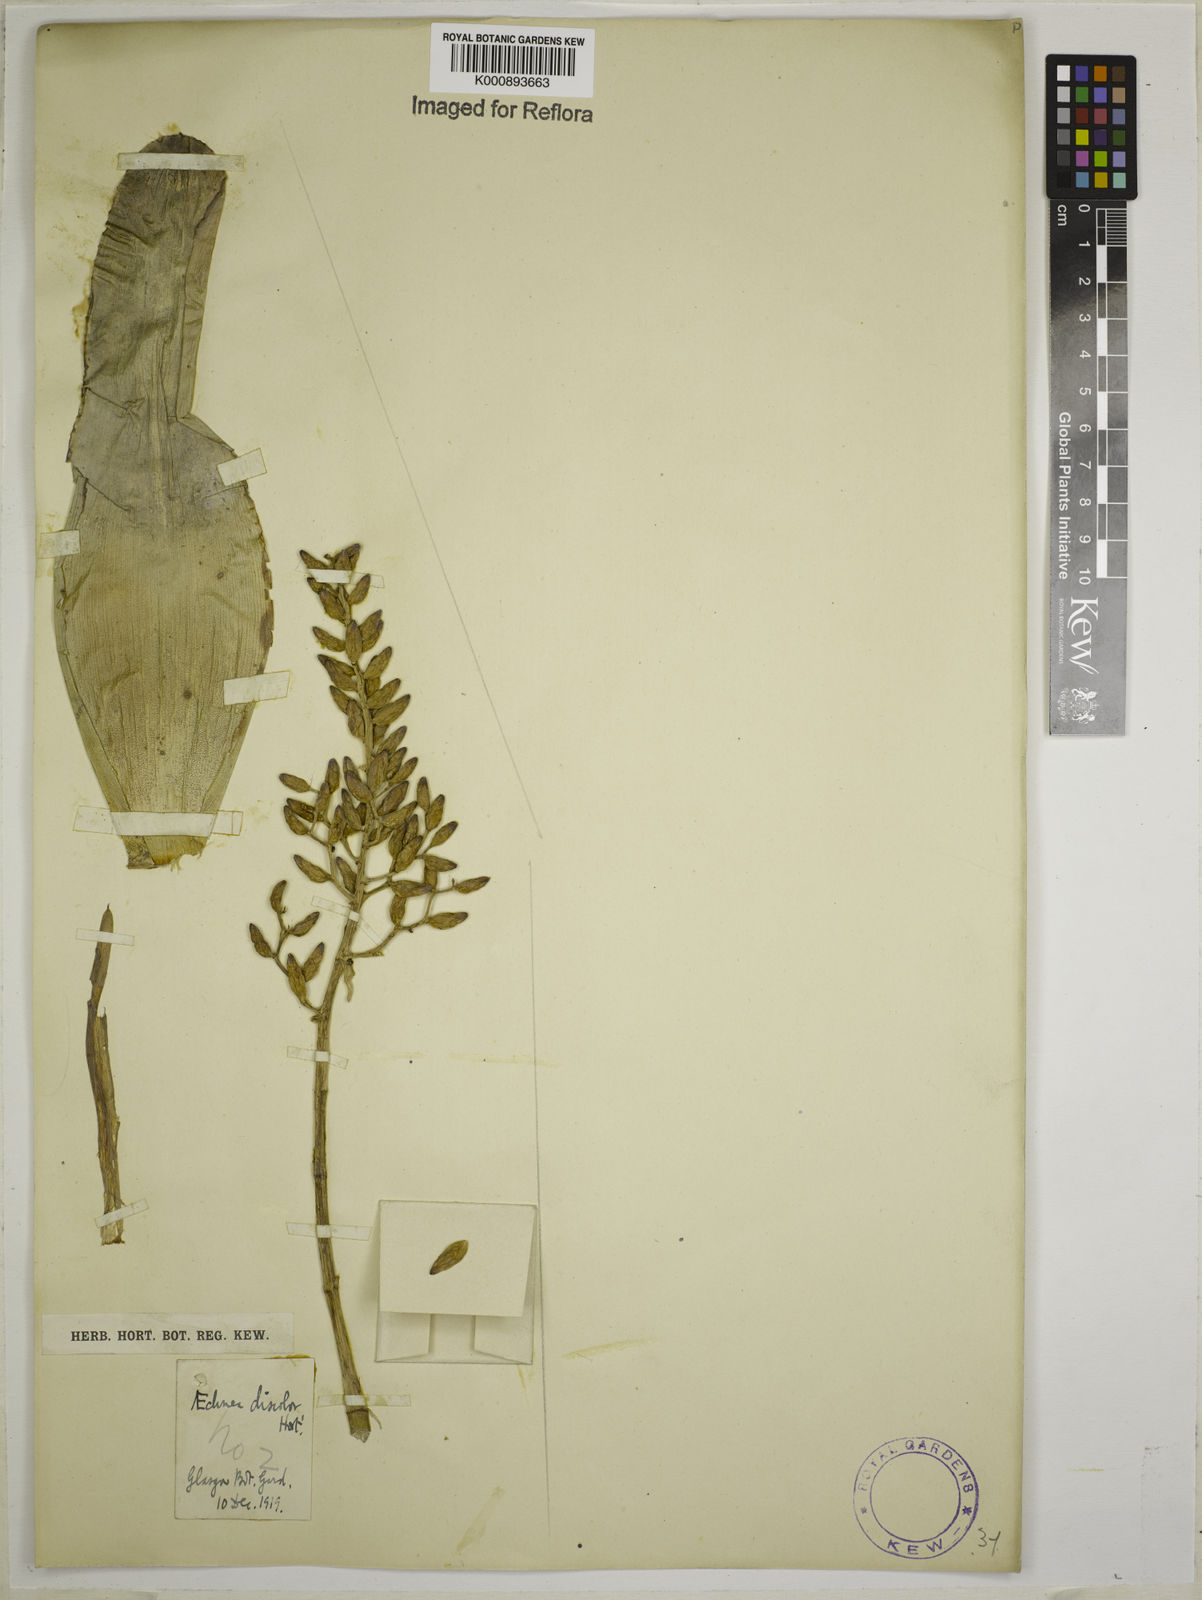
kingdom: Plantae
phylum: Tracheophyta
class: Liliopsida
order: Poales
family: Bromeliaceae
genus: Aechmea
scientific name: Aechmea fulgens
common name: Coralberry
